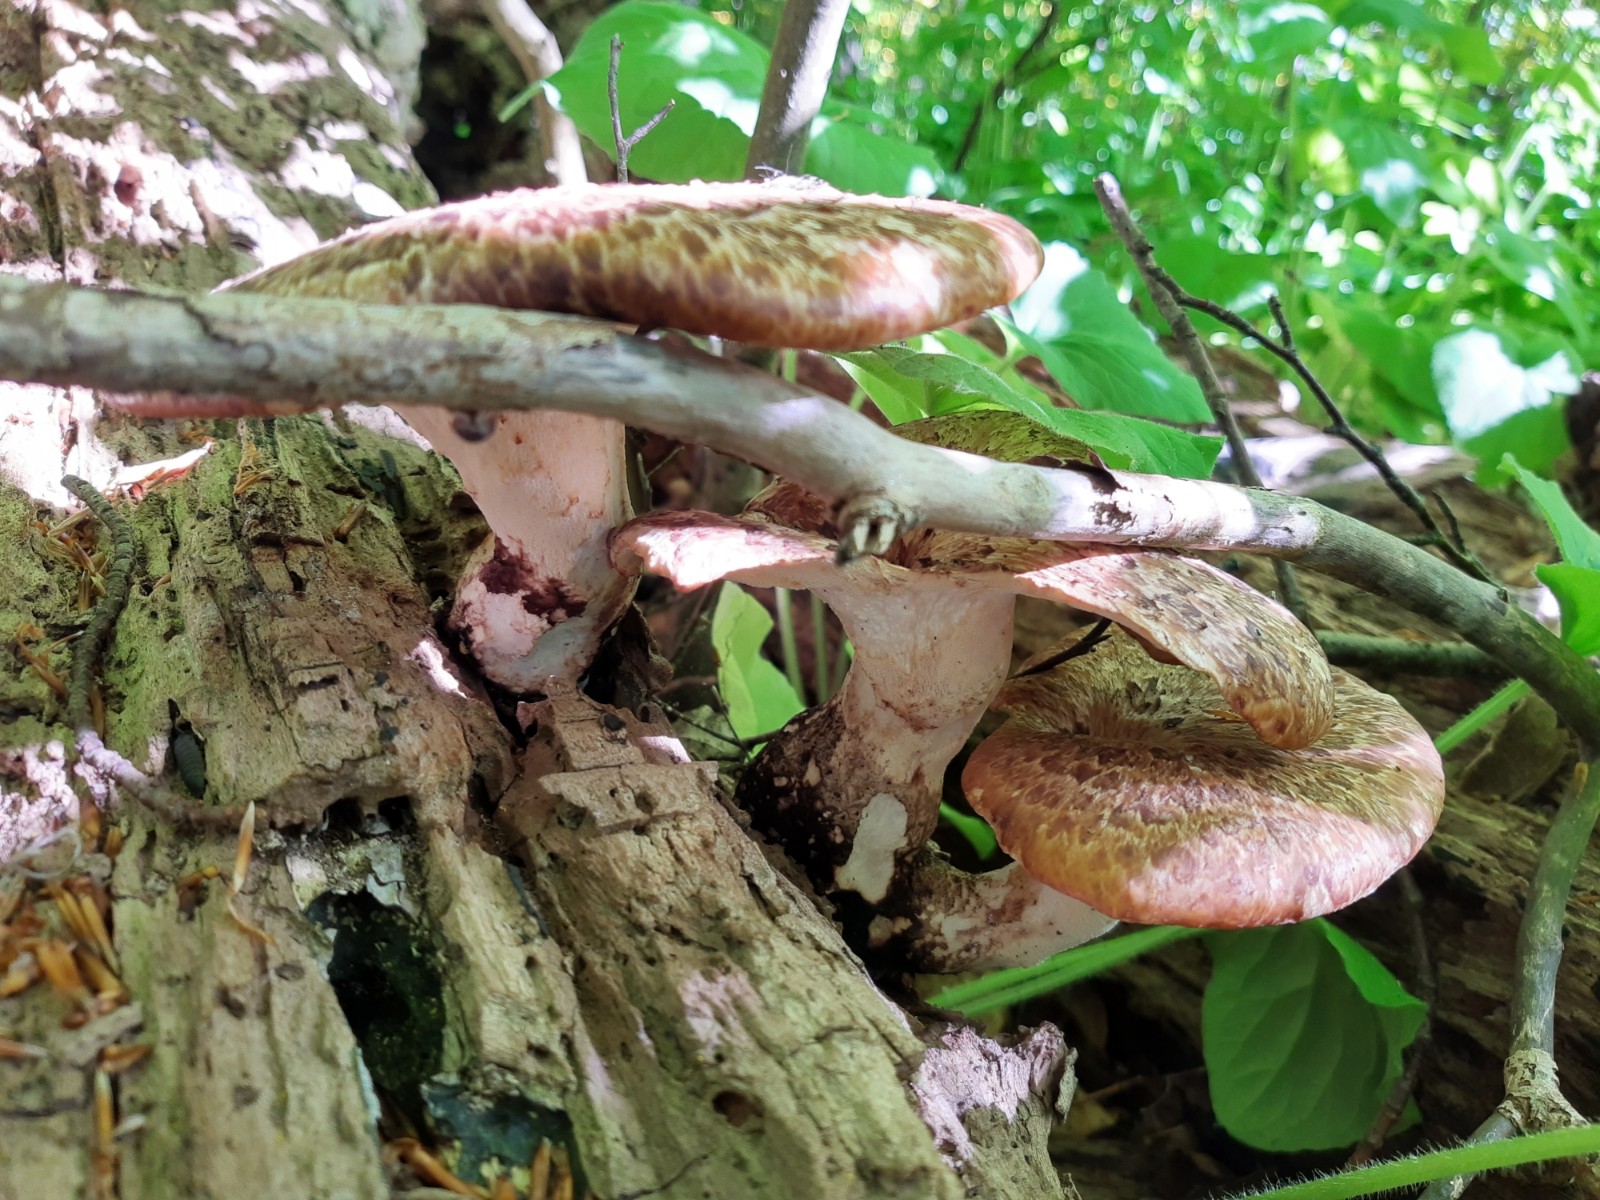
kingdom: Fungi
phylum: Basidiomycota
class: Agaricomycetes
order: Polyporales
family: Polyporaceae
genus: Cerioporus
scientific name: Cerioporus squamosus
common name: skællet stilkporesvamp
